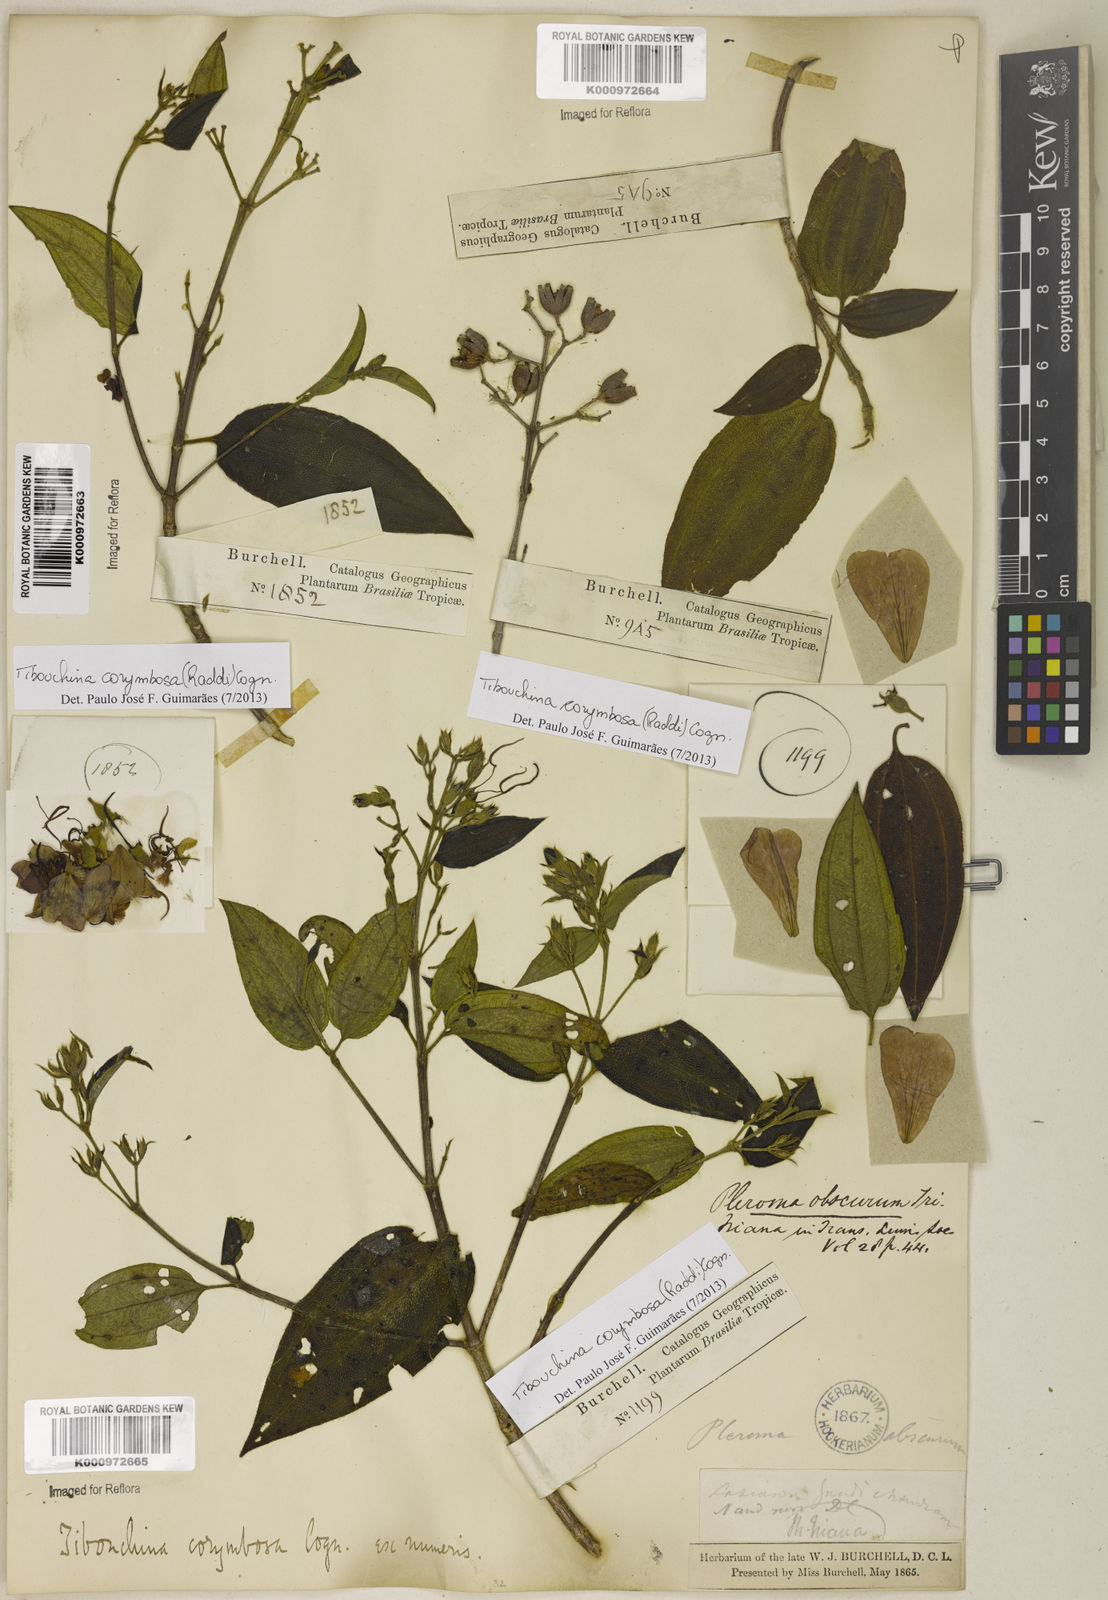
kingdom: Plantae
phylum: Tracheophyta
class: Magnoliopsida
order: Myrtales
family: Melastomataceae
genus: Pleroma
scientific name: Pleroma vimineum
